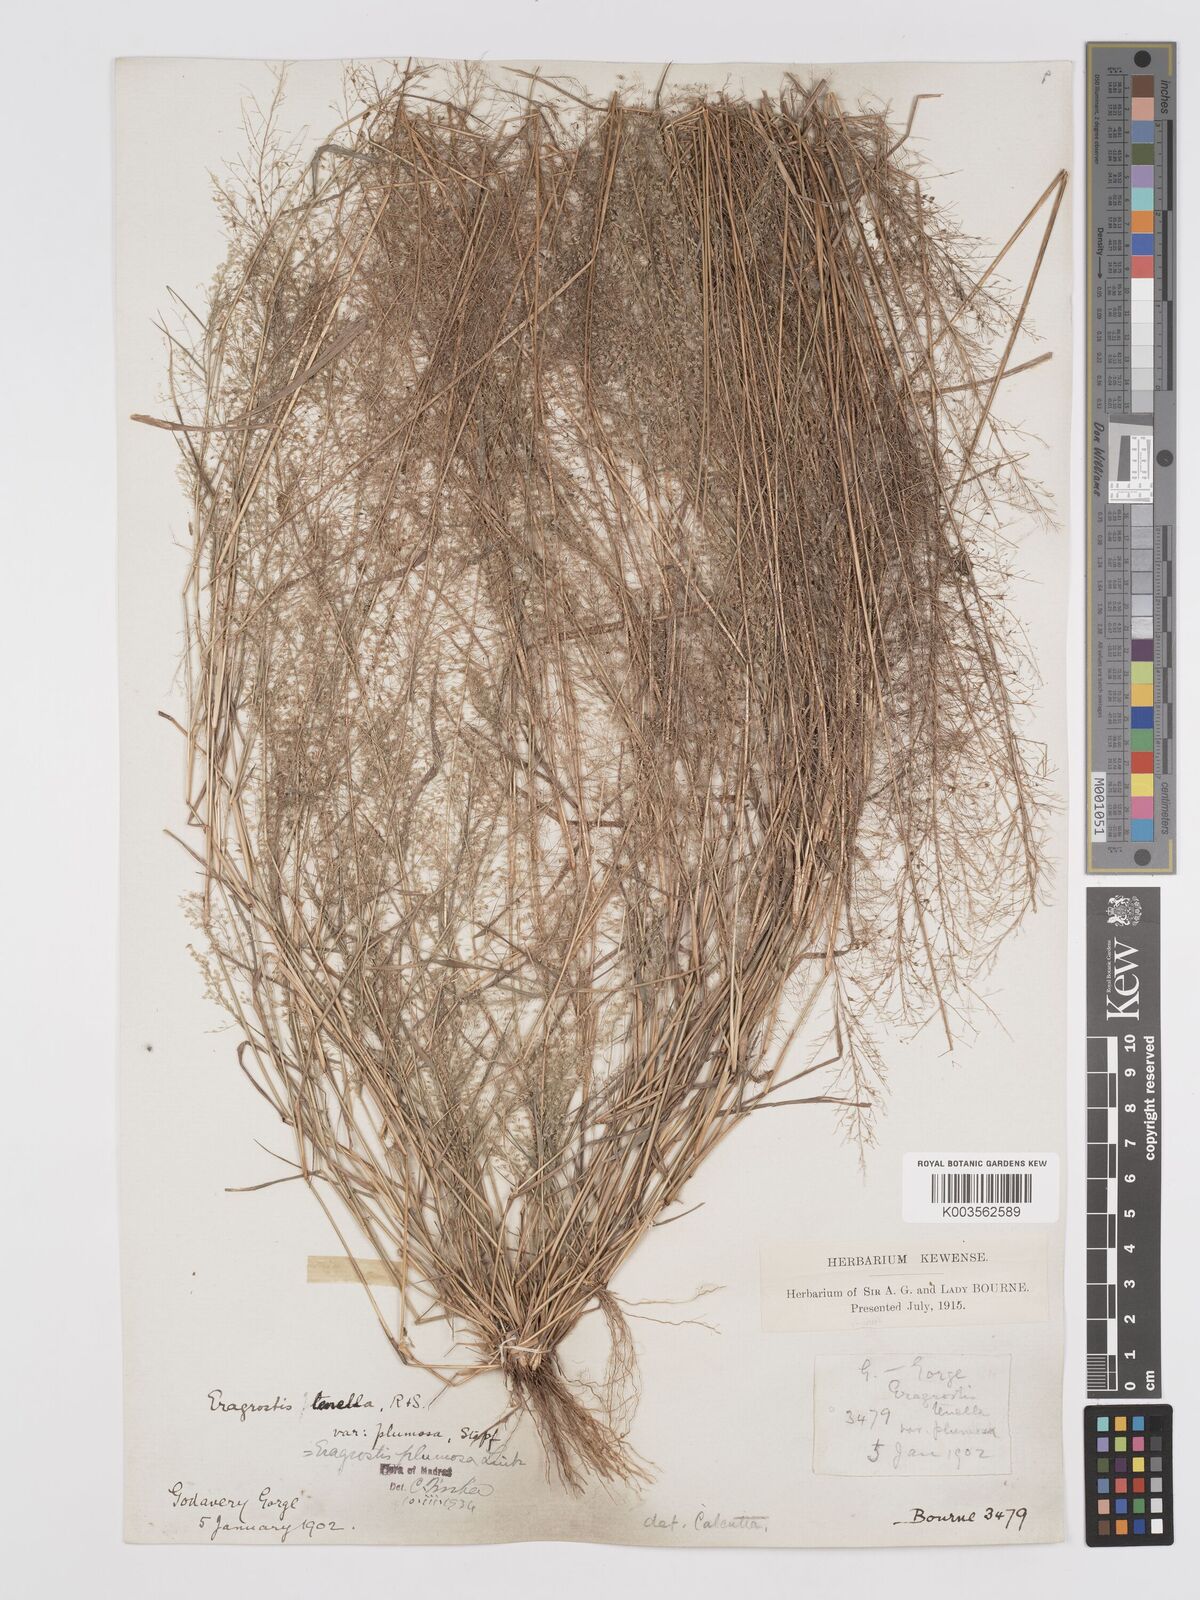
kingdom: Plantae
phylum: Tracheophyta
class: Liliopsida
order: Poales
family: Poaceae
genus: Eragrostis
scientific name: Eragrostis tenella
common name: Japanese lovegrass
